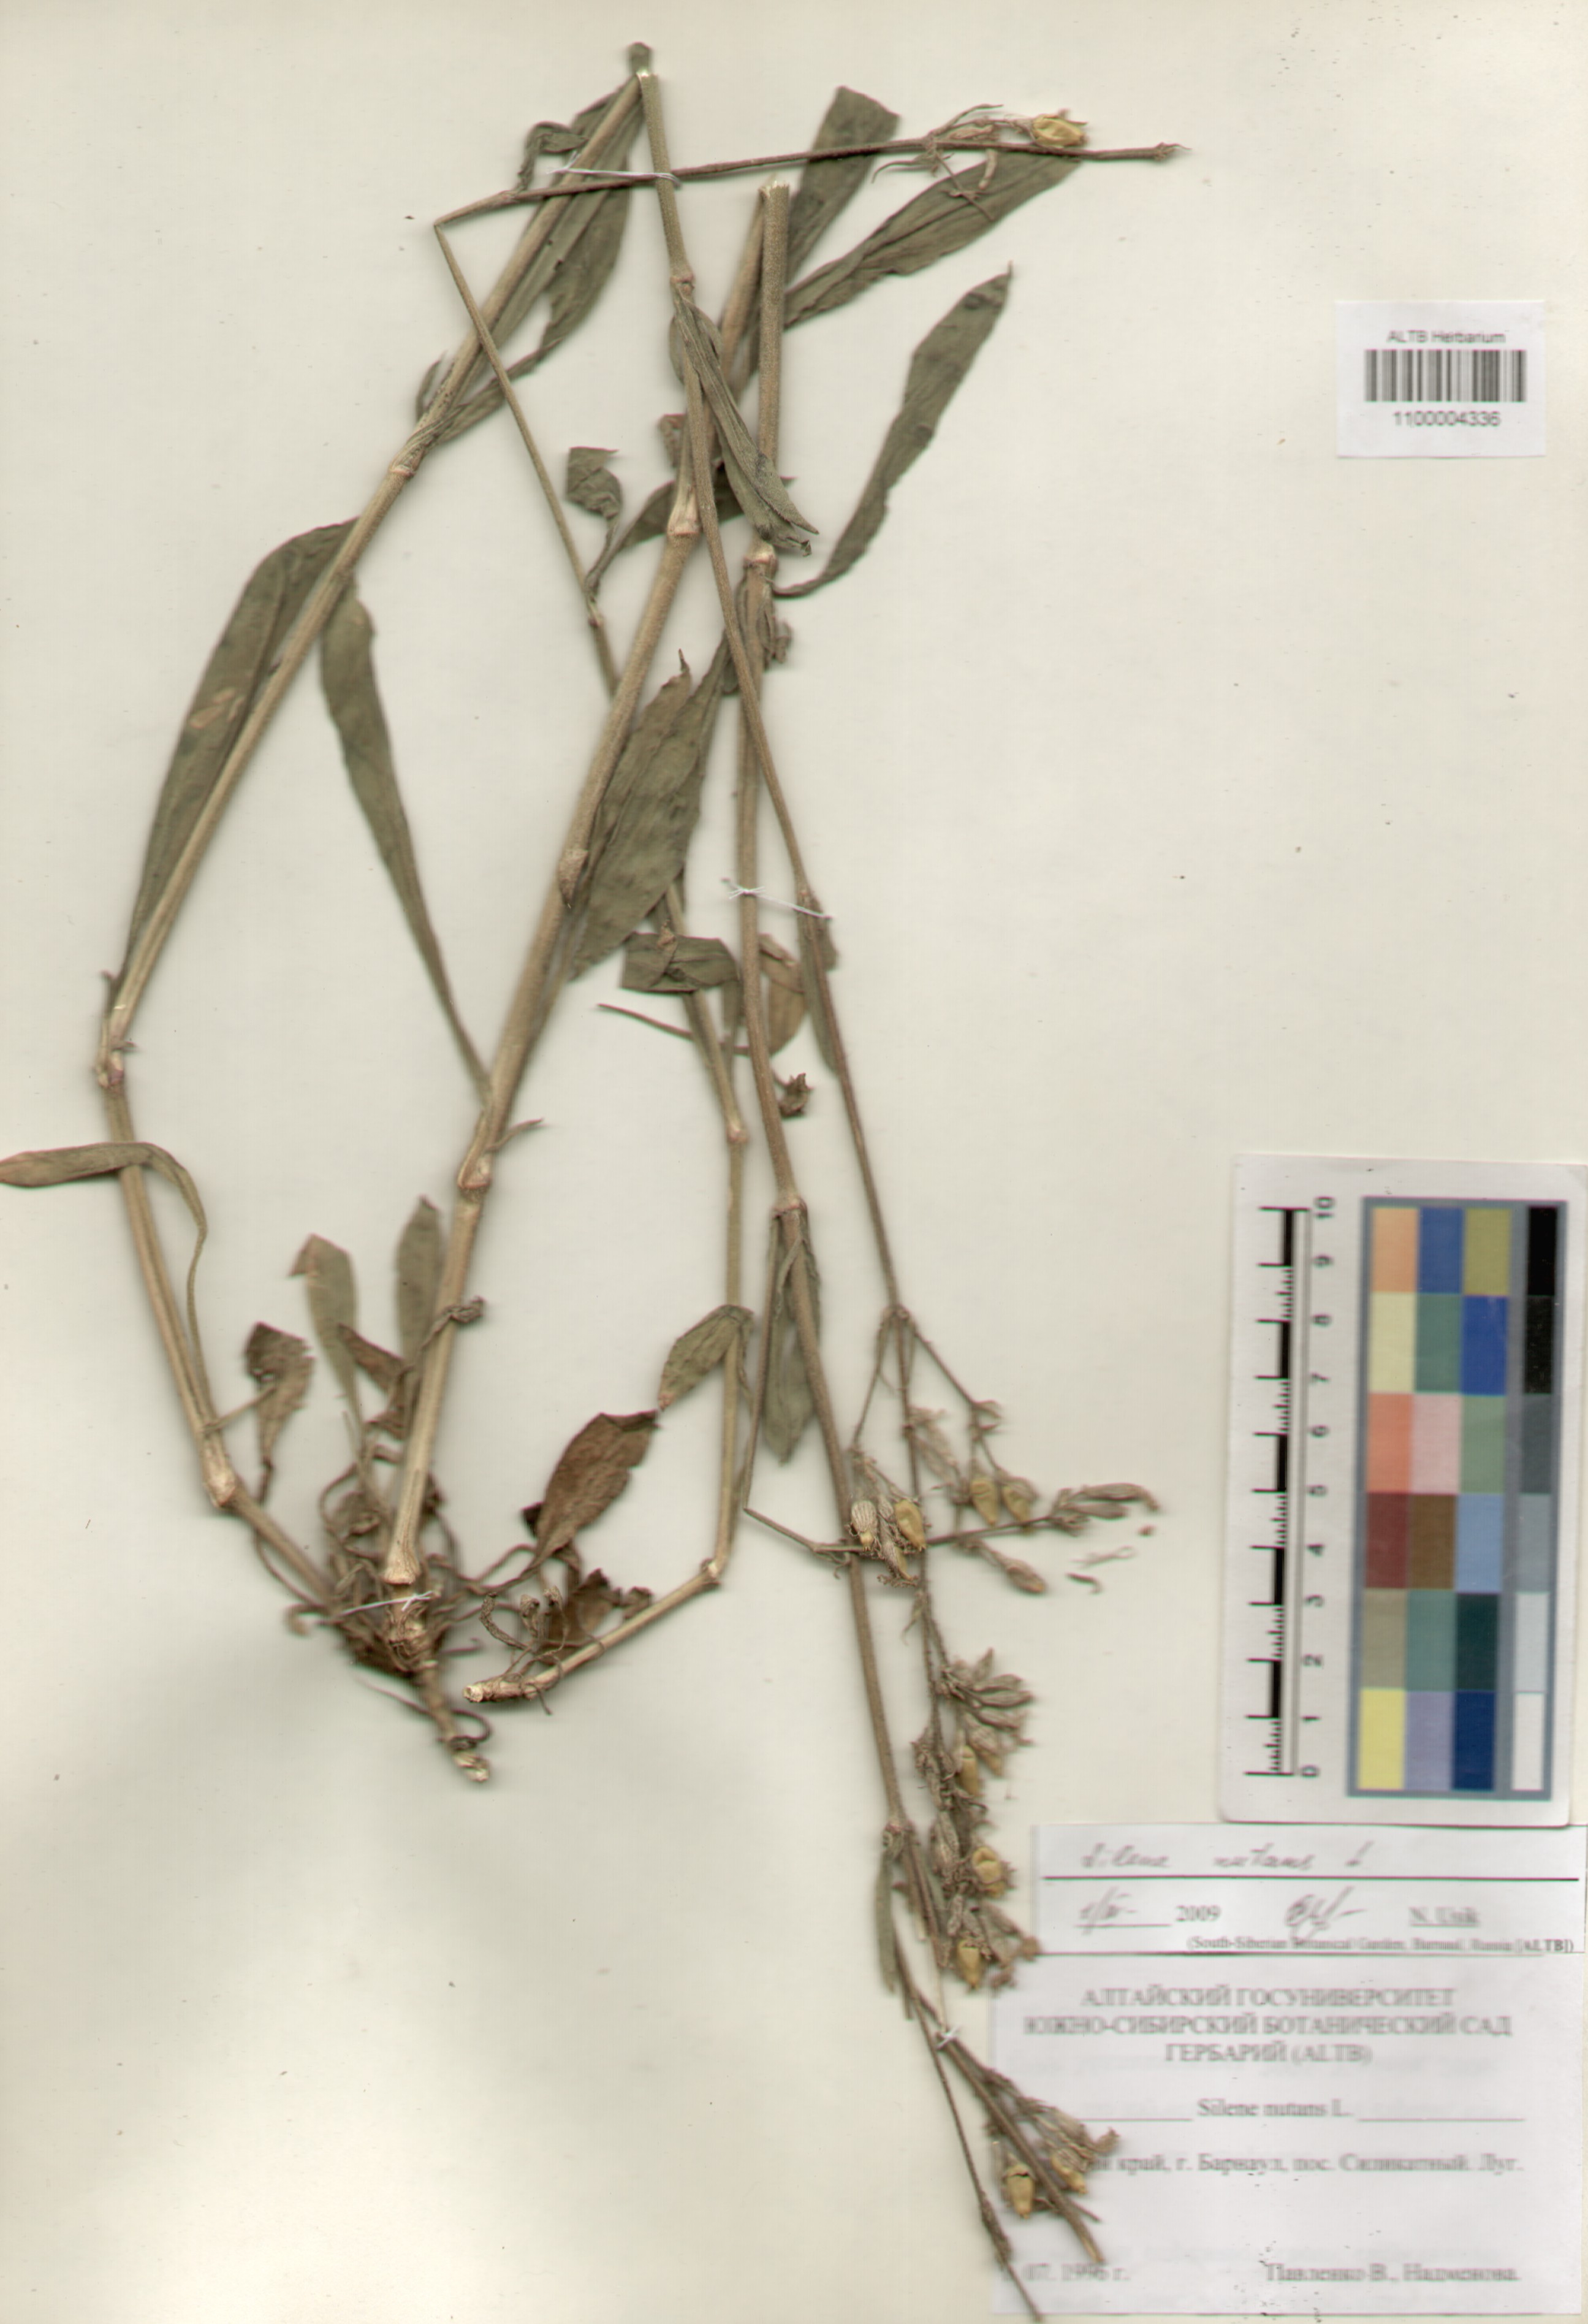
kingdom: Plantae
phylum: Tracheophyta
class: Magnoliopsida
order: Caryophyllales
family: Caryophyllaceae
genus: Silene
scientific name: Silene nutans
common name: Nottingham catchfly
